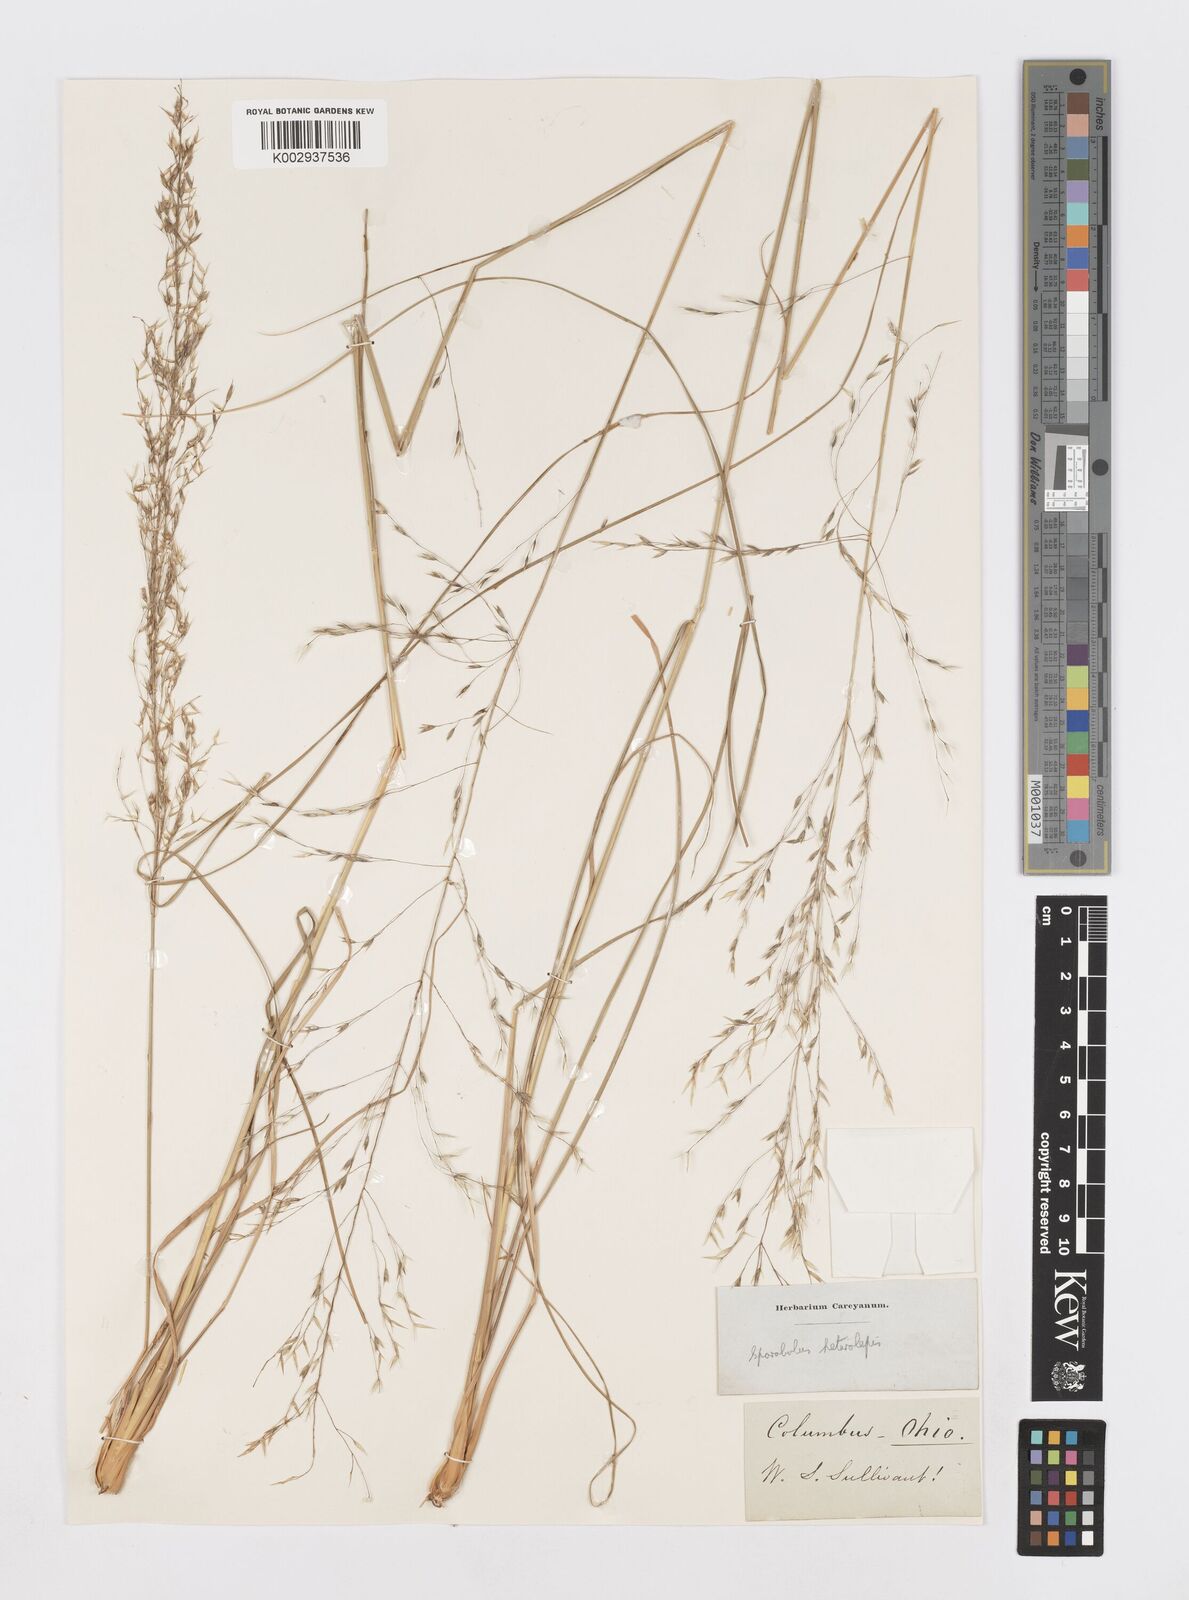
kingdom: Plantae
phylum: Tracheophyta
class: Liliopsida
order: Poales
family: Poaceae
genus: Sporobolus
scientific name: Sporobolus heterolepis
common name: Prairie dropseed
